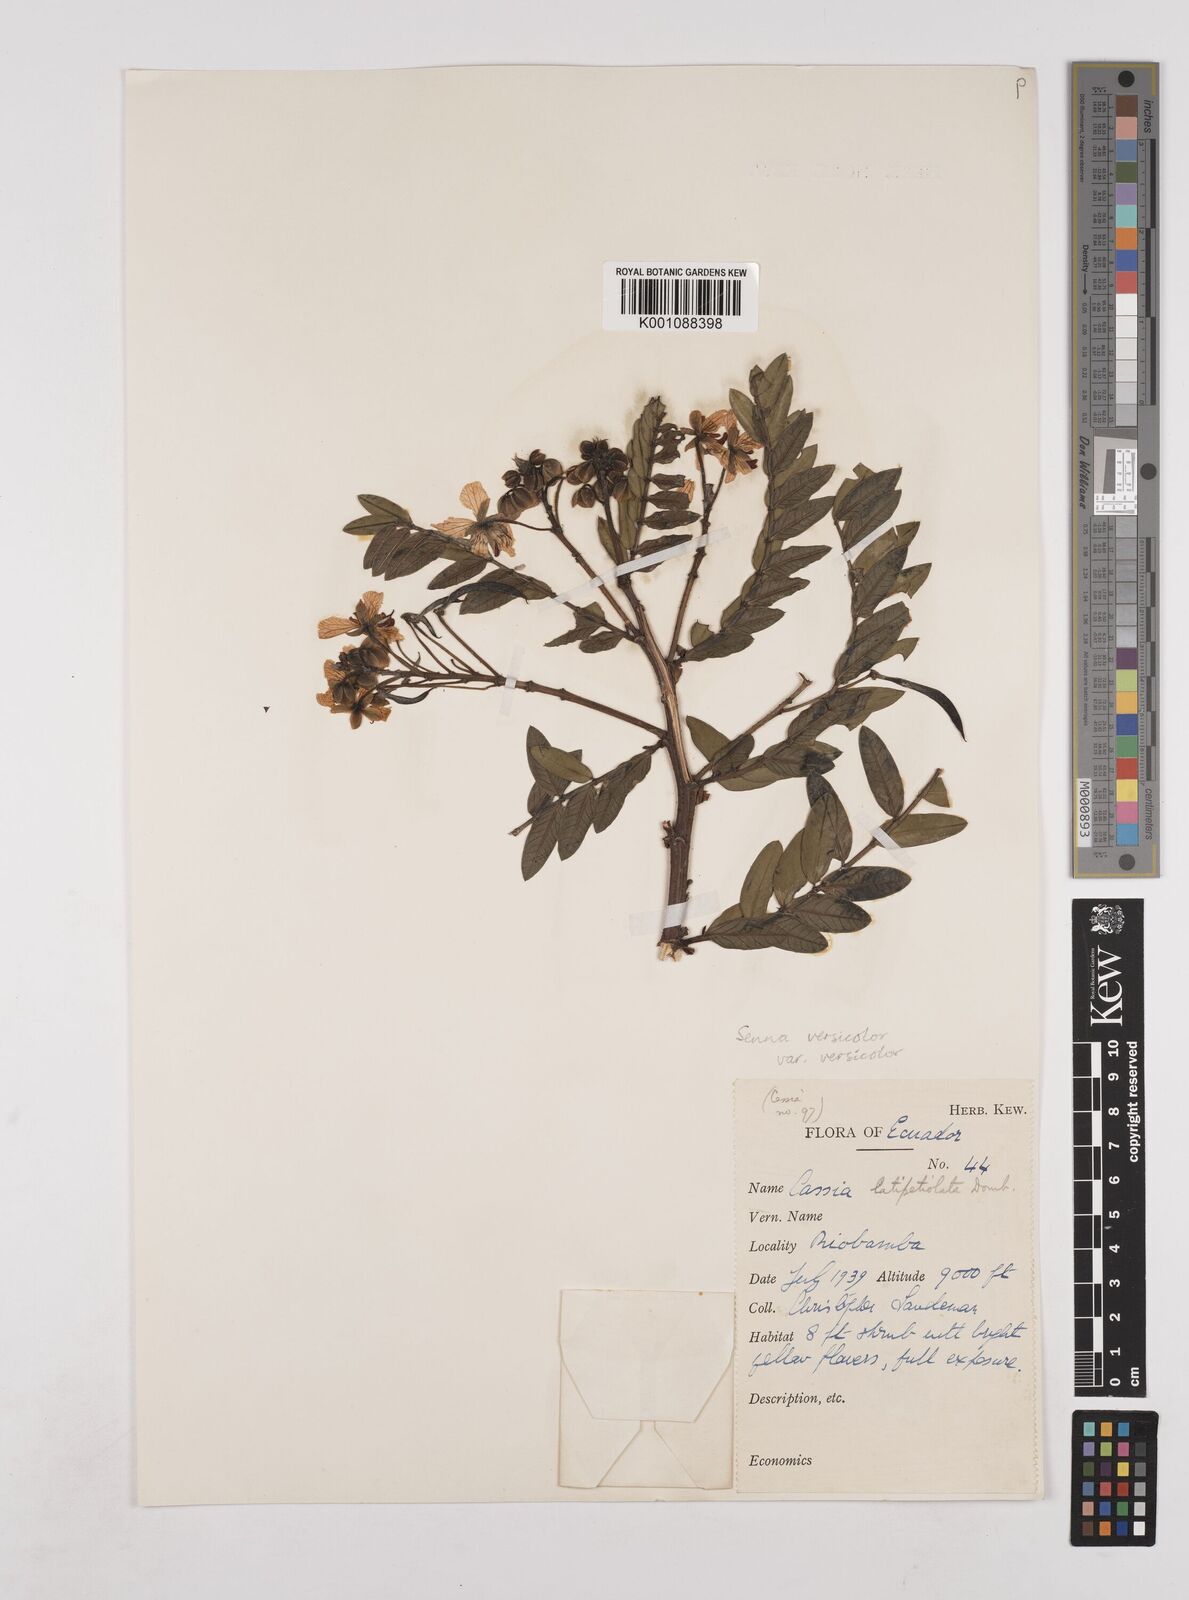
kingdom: Plantae
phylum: Tracheophyta
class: Magnoliopsida
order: Fabales
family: Fabaceae
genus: Senna
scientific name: Senna versicolor
